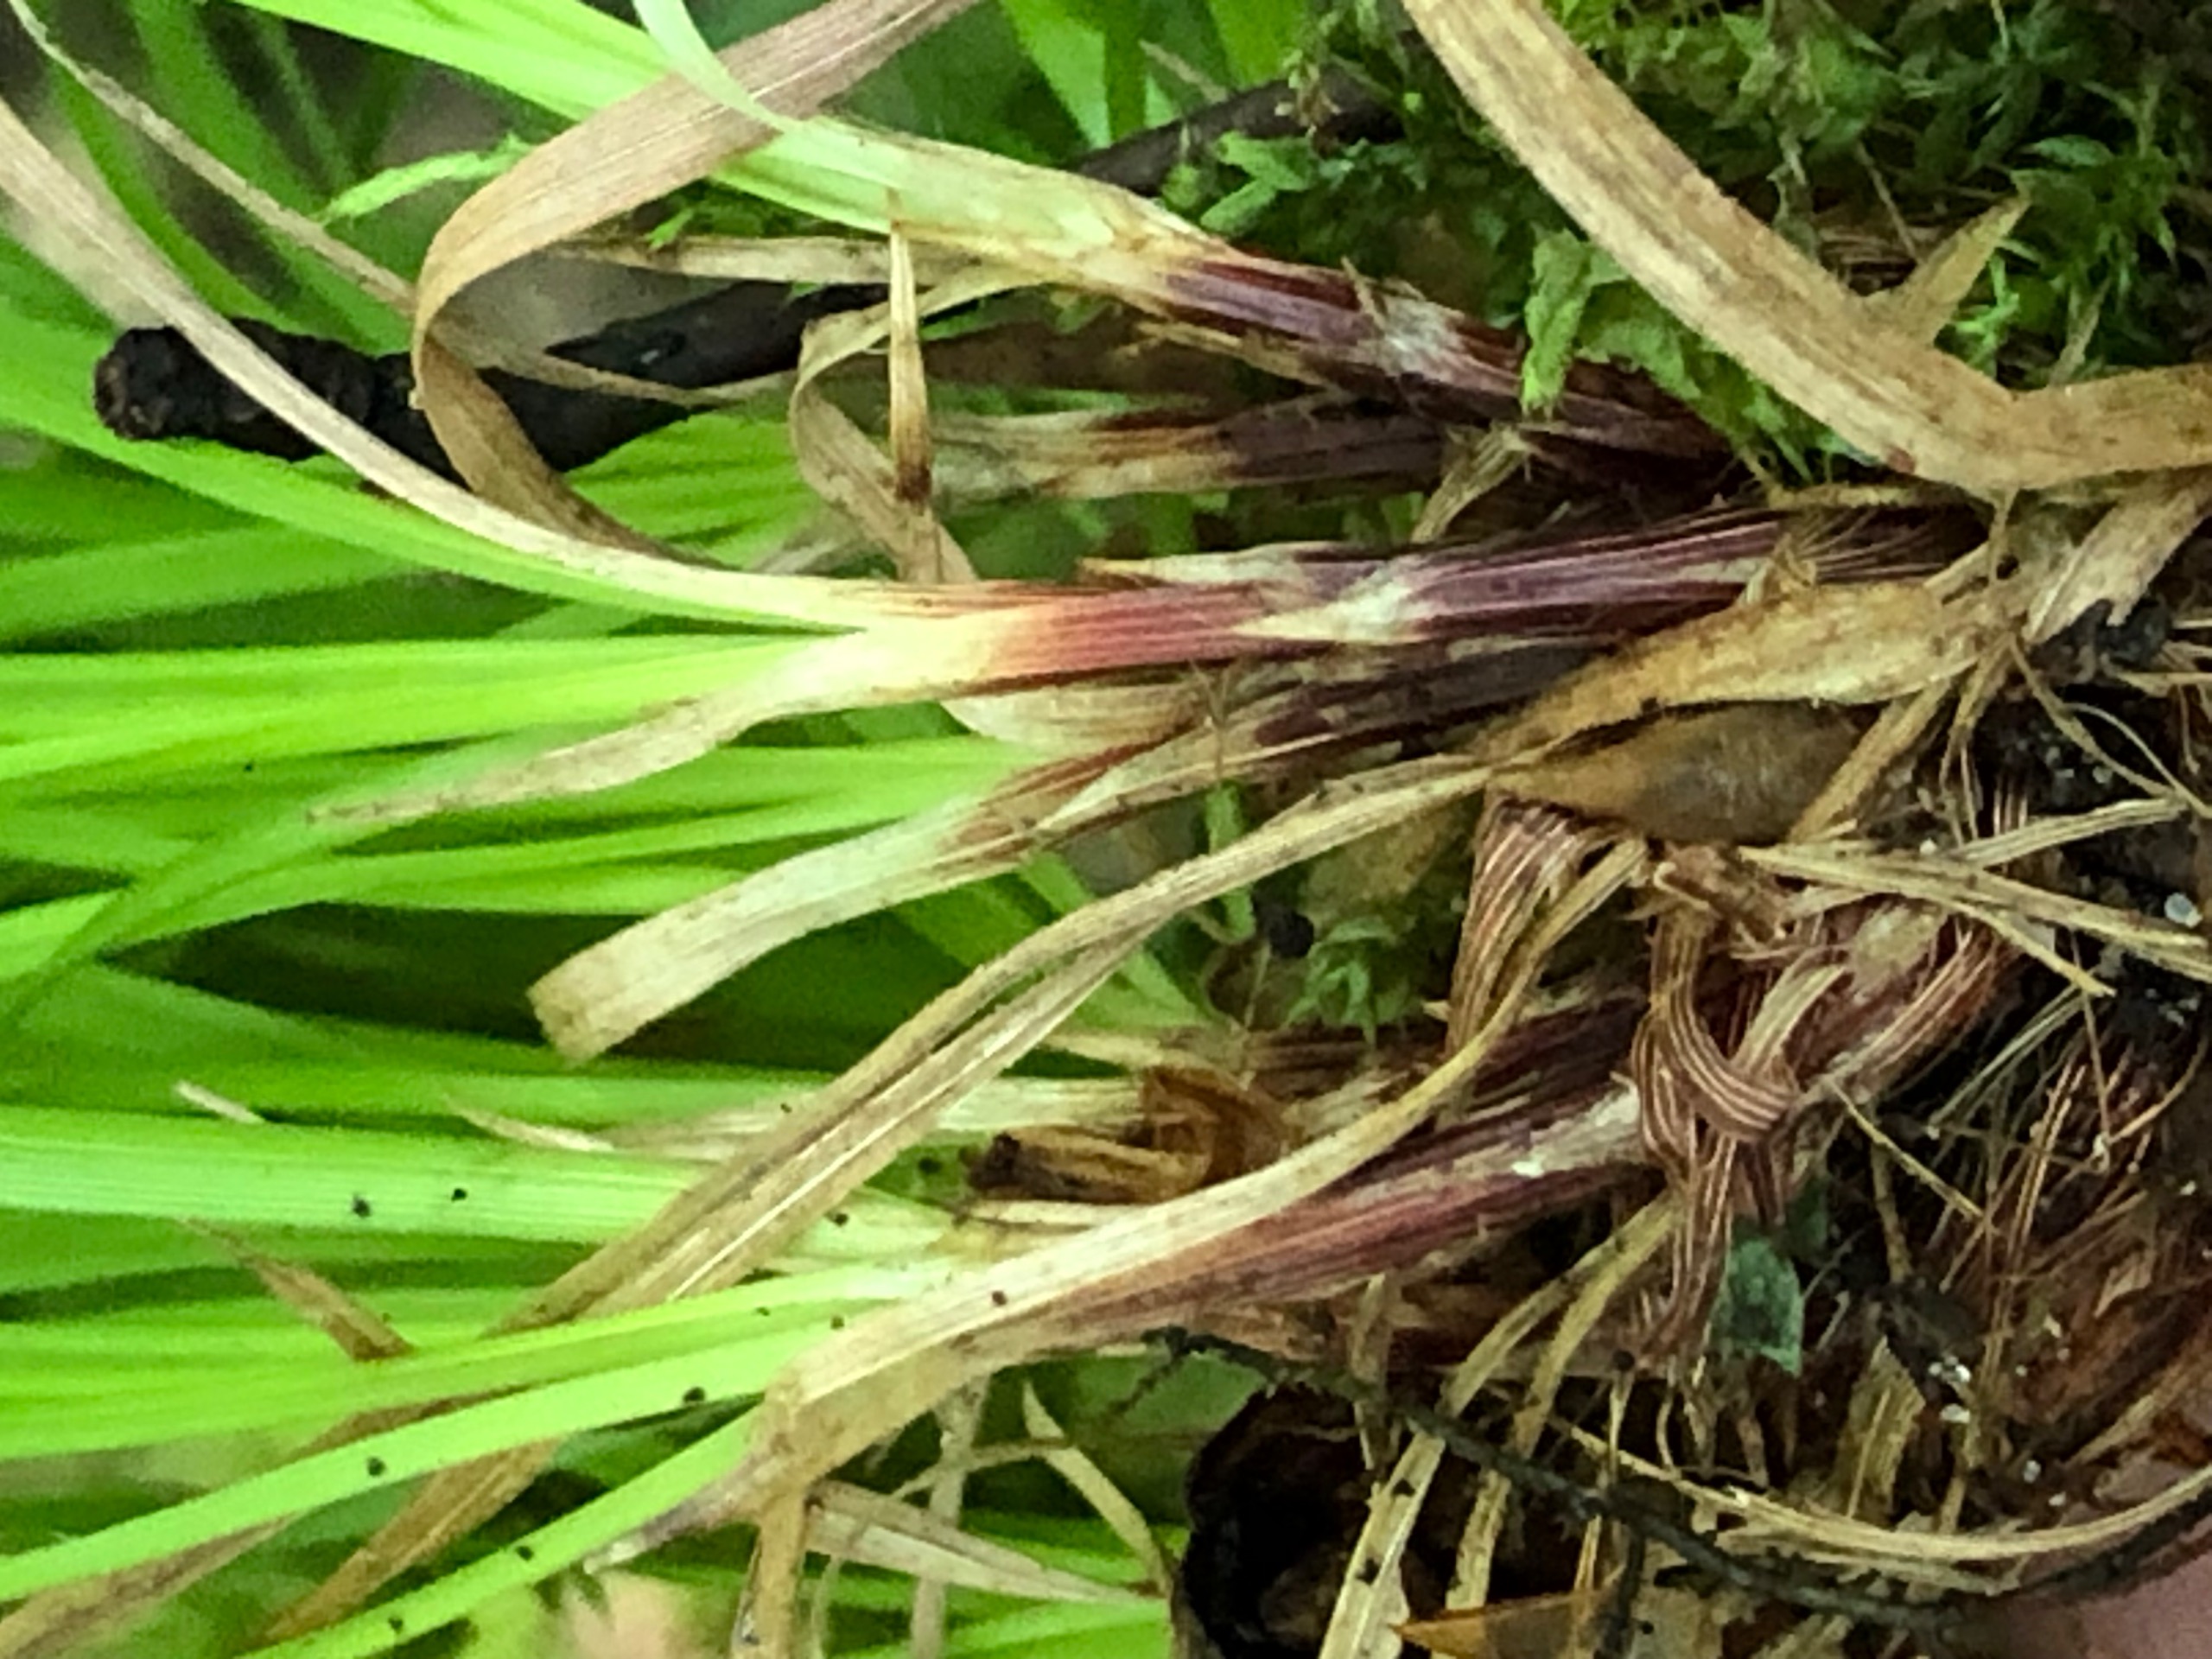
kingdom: Plantae
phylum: Tracheophyta
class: Liliopsida
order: Poales
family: Cyperaceae
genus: Carex
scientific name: Carex montana
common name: Bakke-star
